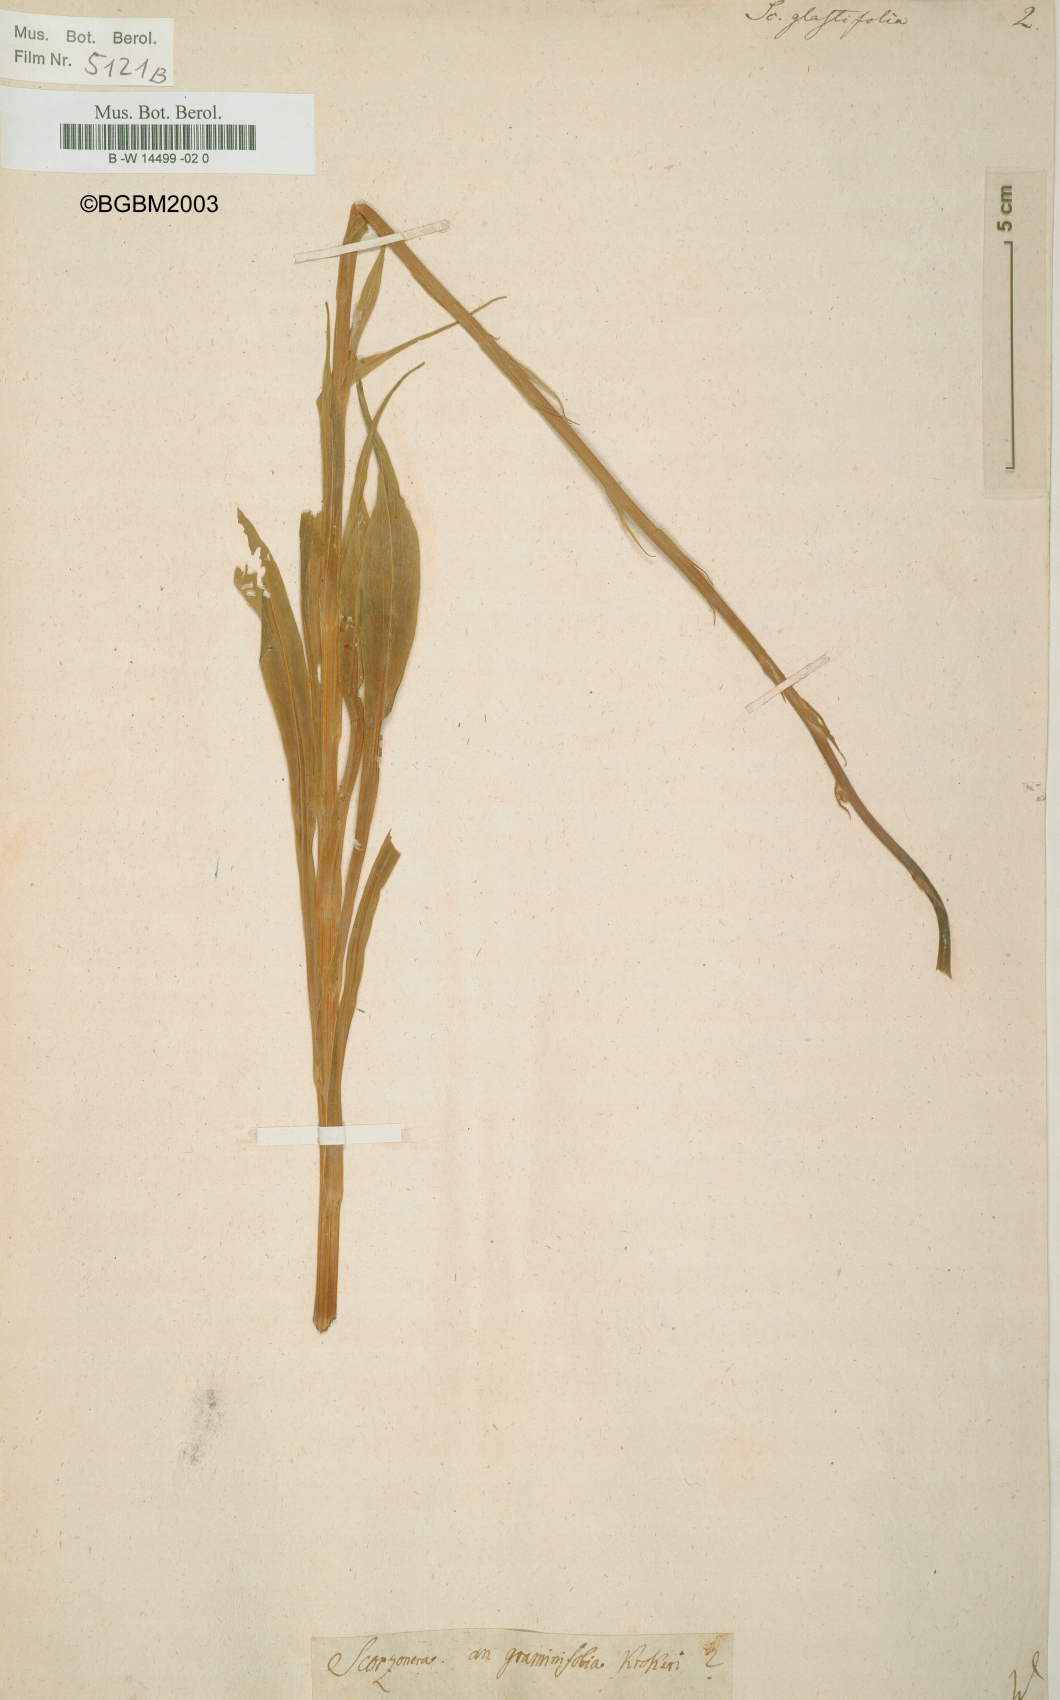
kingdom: Plantae
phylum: Tracheophyta
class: Magnoliopsida
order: Asterales
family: Asteraceae
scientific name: Asteraceae
